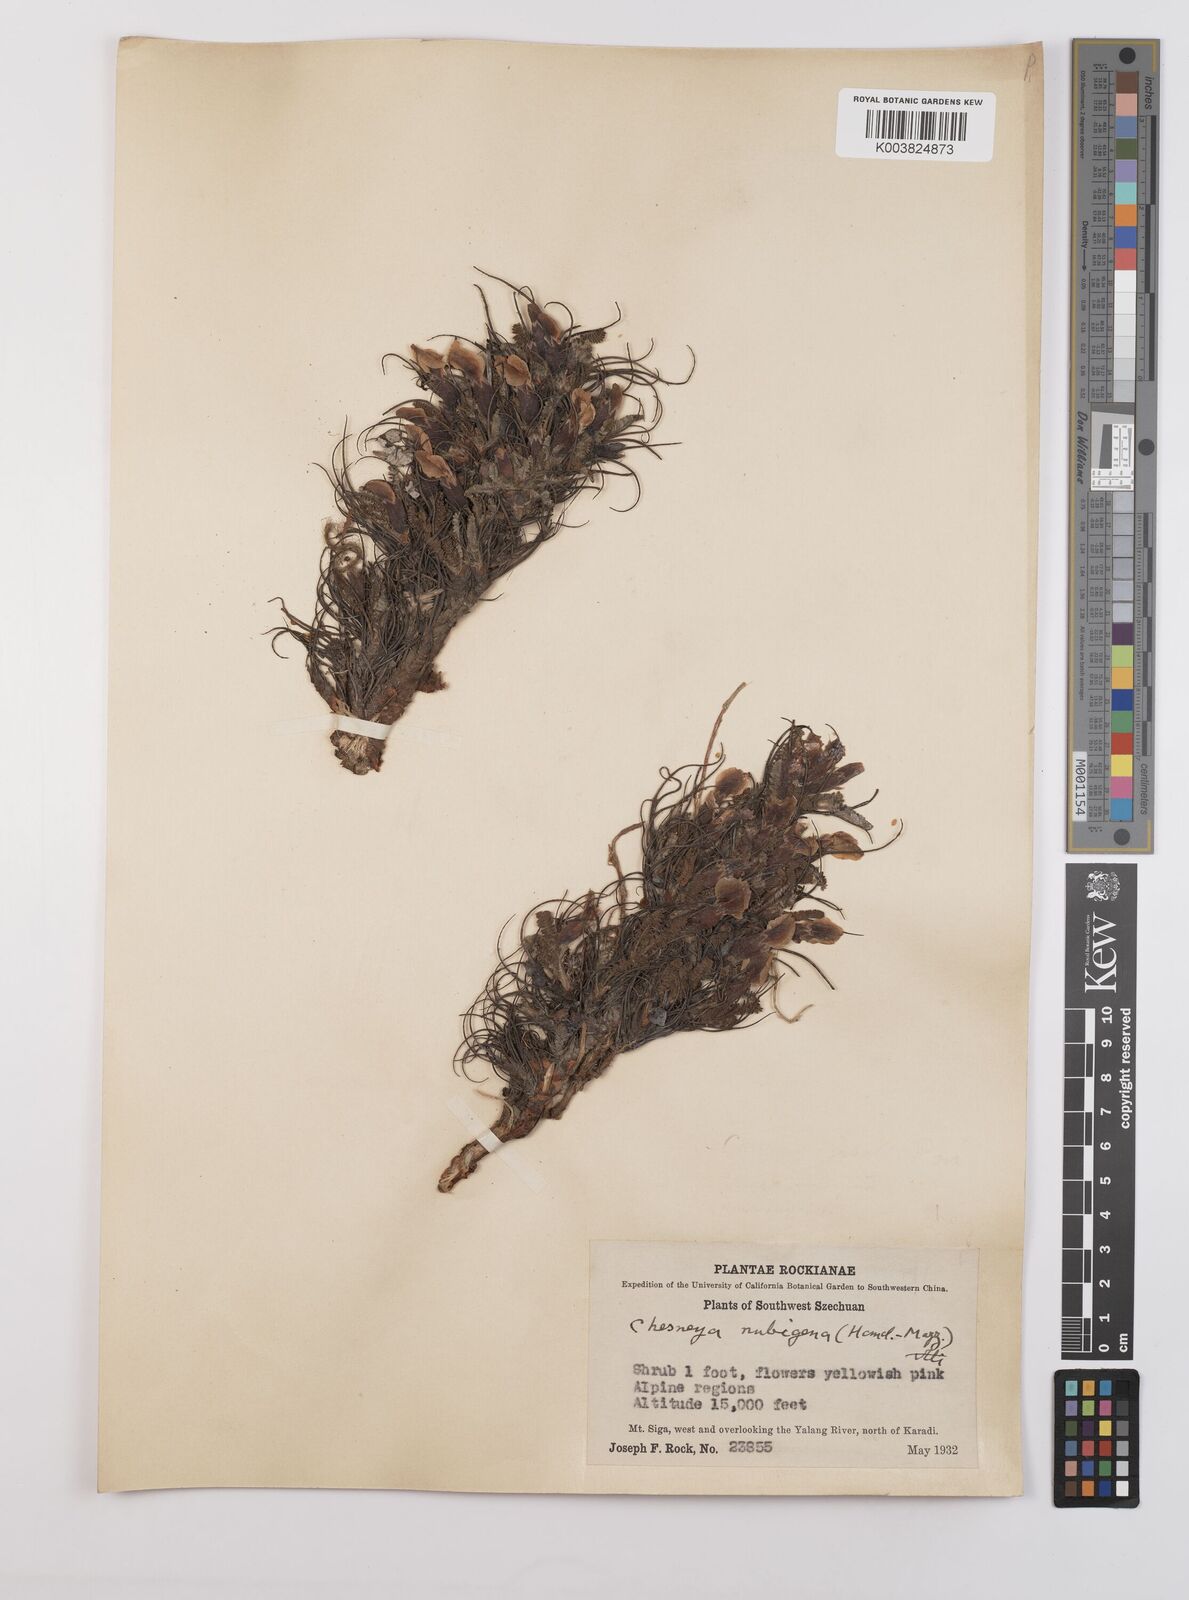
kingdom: Plantae
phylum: Tracheophyta
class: Magnoliopsida
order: Fabales
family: Fabaceae
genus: Chesneya
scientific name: Chesneya nubigena
